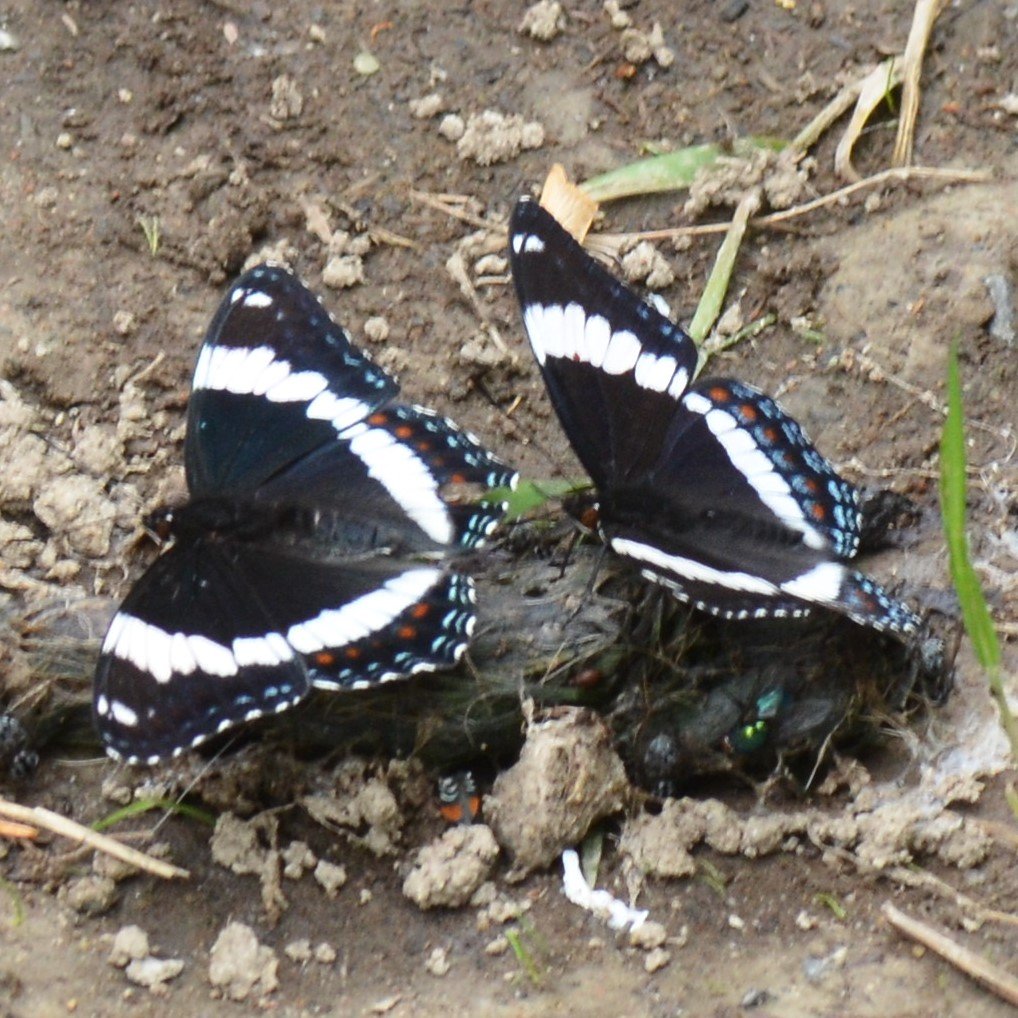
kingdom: Animalia
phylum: Arthropoda
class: Insecta
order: Lepidoptera
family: Nymphalidae
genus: Limenitis
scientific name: Limenitis arthemis
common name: Red-spotted Admiral
